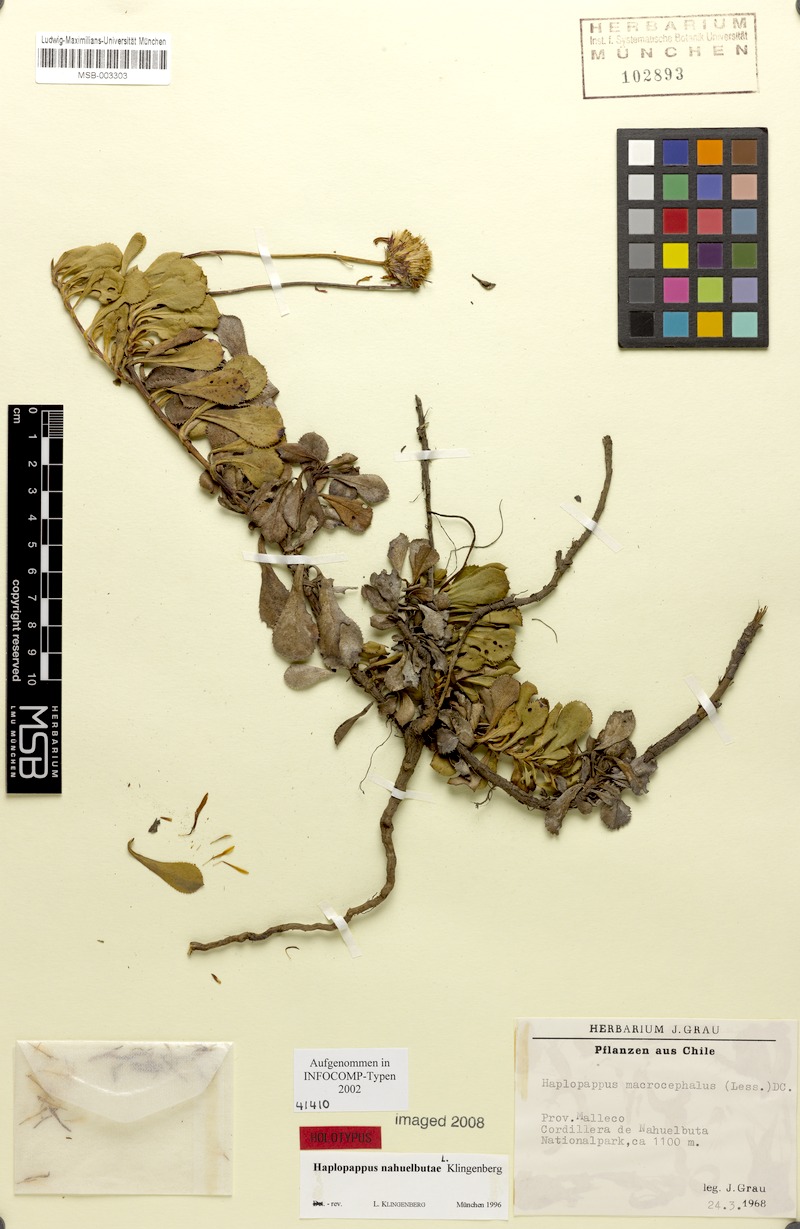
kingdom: Plantae
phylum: Tracheophyta
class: Magnoliopsida
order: Asterales
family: Asteraceae
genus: Haplopappus
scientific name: Haplopappus nahuelbutae
